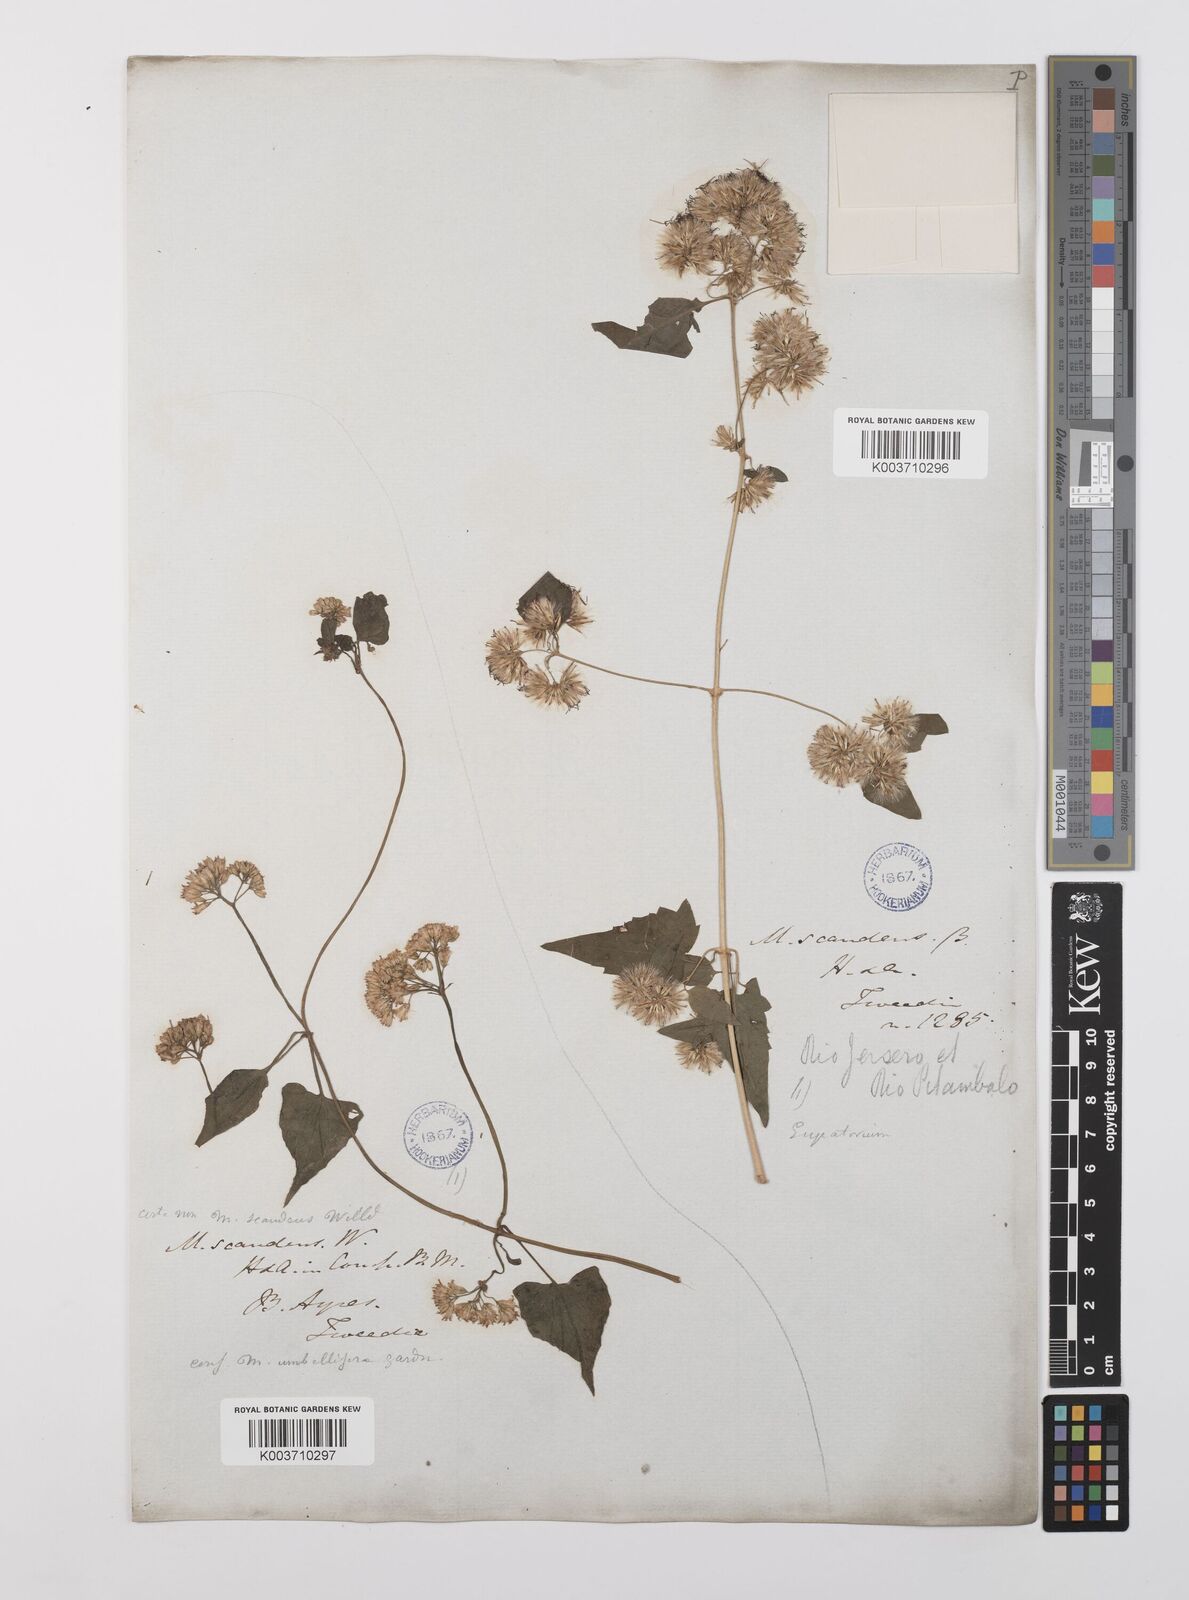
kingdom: Plantae
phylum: Tracheophyta
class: Magnoliopsida
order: Asterales
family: Asteraceae
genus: Austrobrickellia
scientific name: Austrobrickellia arnottii
